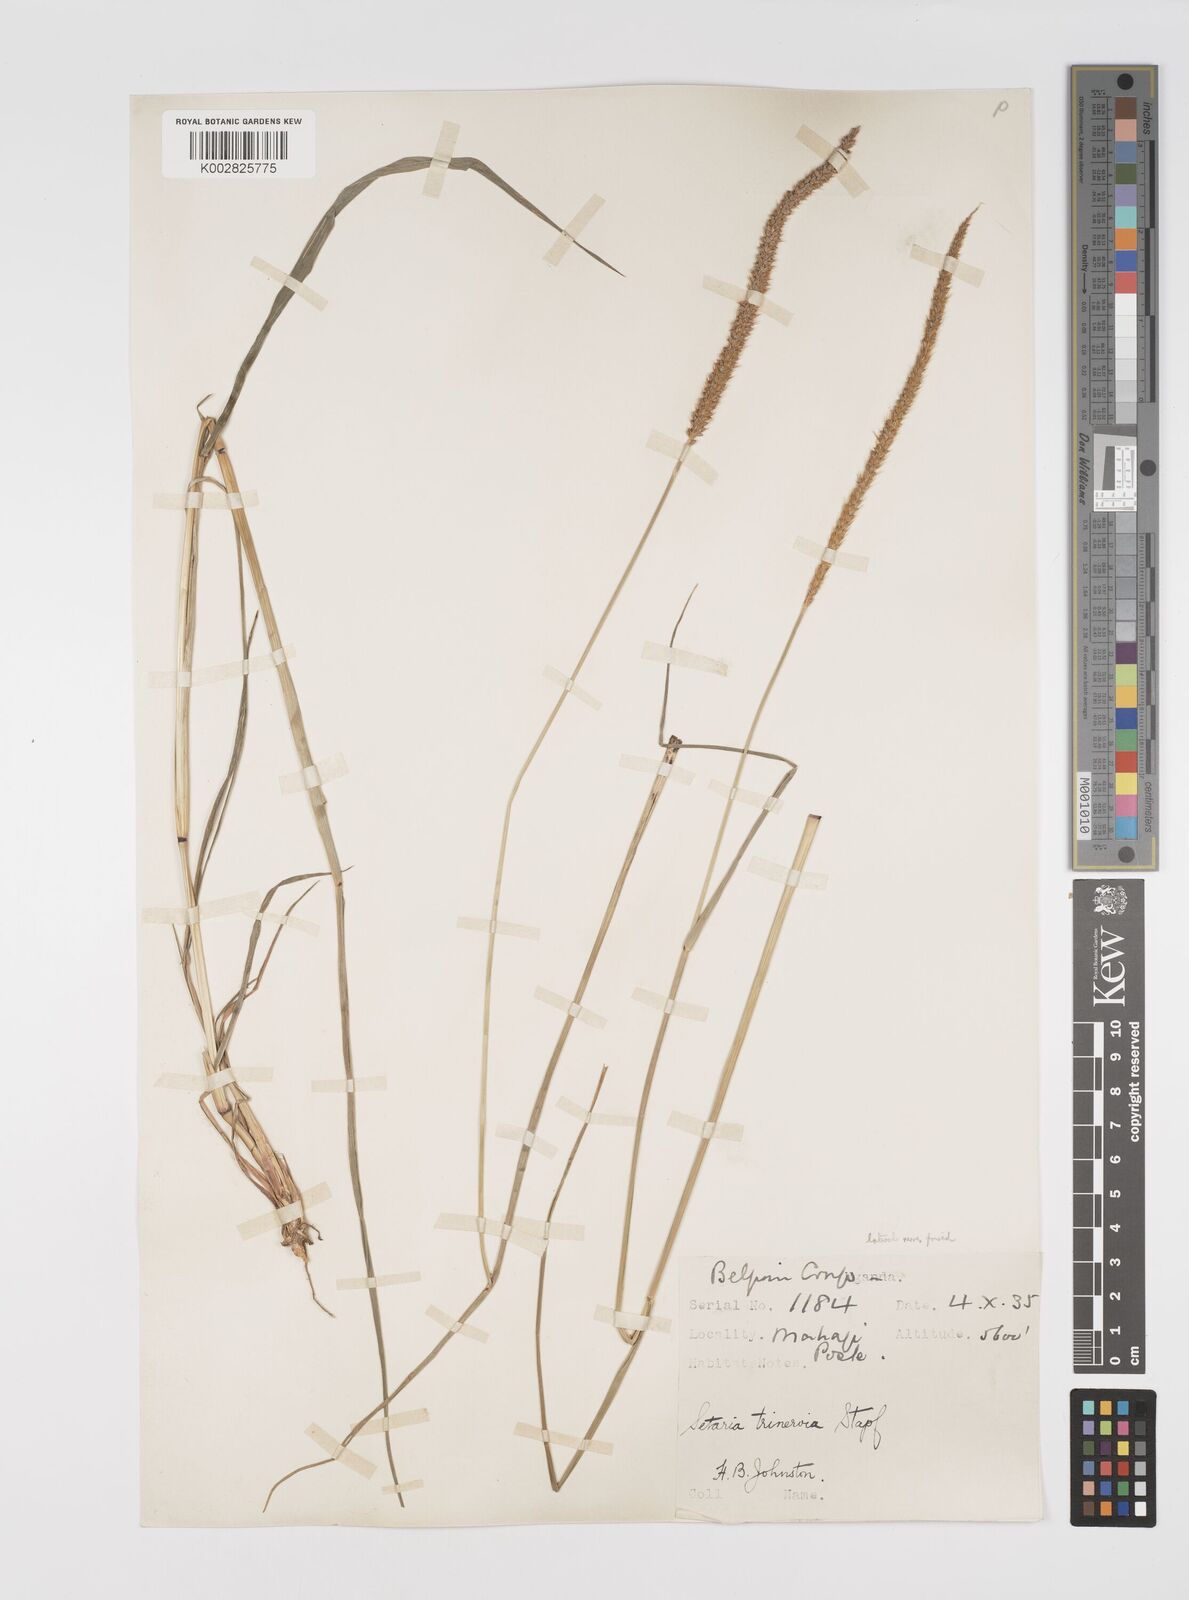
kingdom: Plantae
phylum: Tracheophyta
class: Liliopsida
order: Poales
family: Poaceae
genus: Setaria
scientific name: Setaria sphacelata
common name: African bristlegrass
